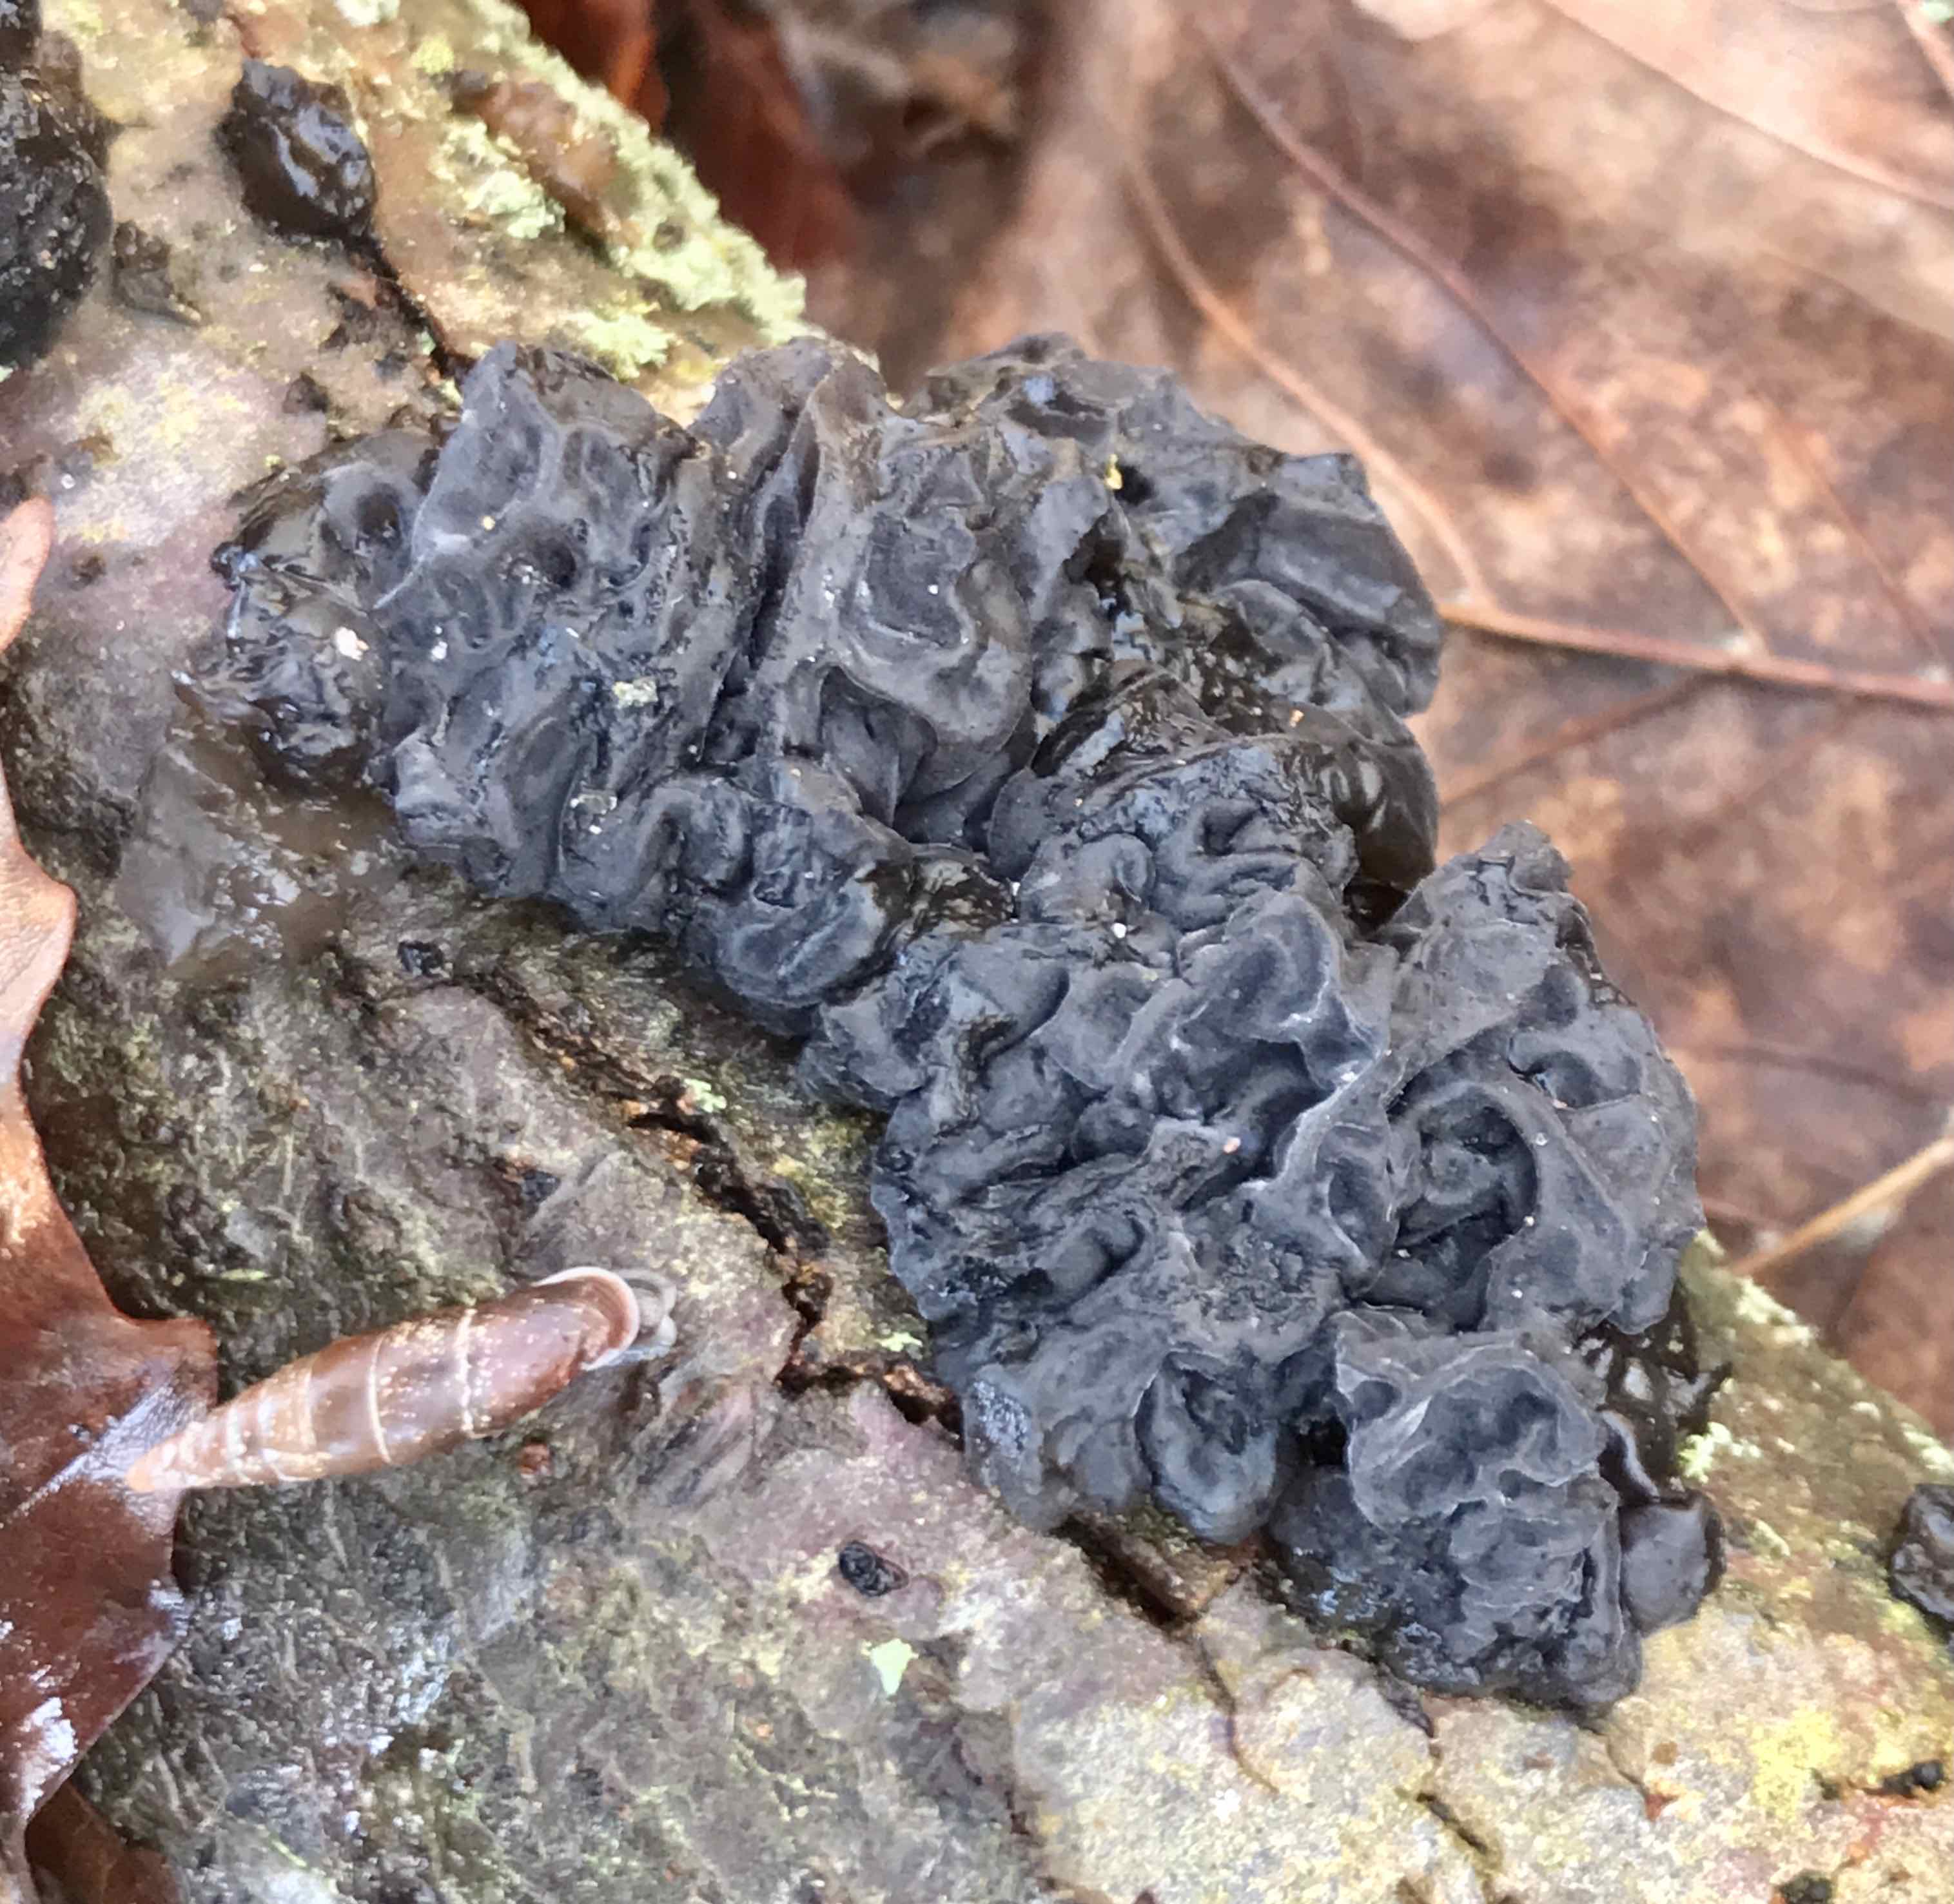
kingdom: Fungi
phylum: Basidiomycota
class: Agaricomycetes
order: Auriculariales
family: Auriculariaceae
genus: Exidia
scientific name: Exidia nigricans
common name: almindelig bævretop
